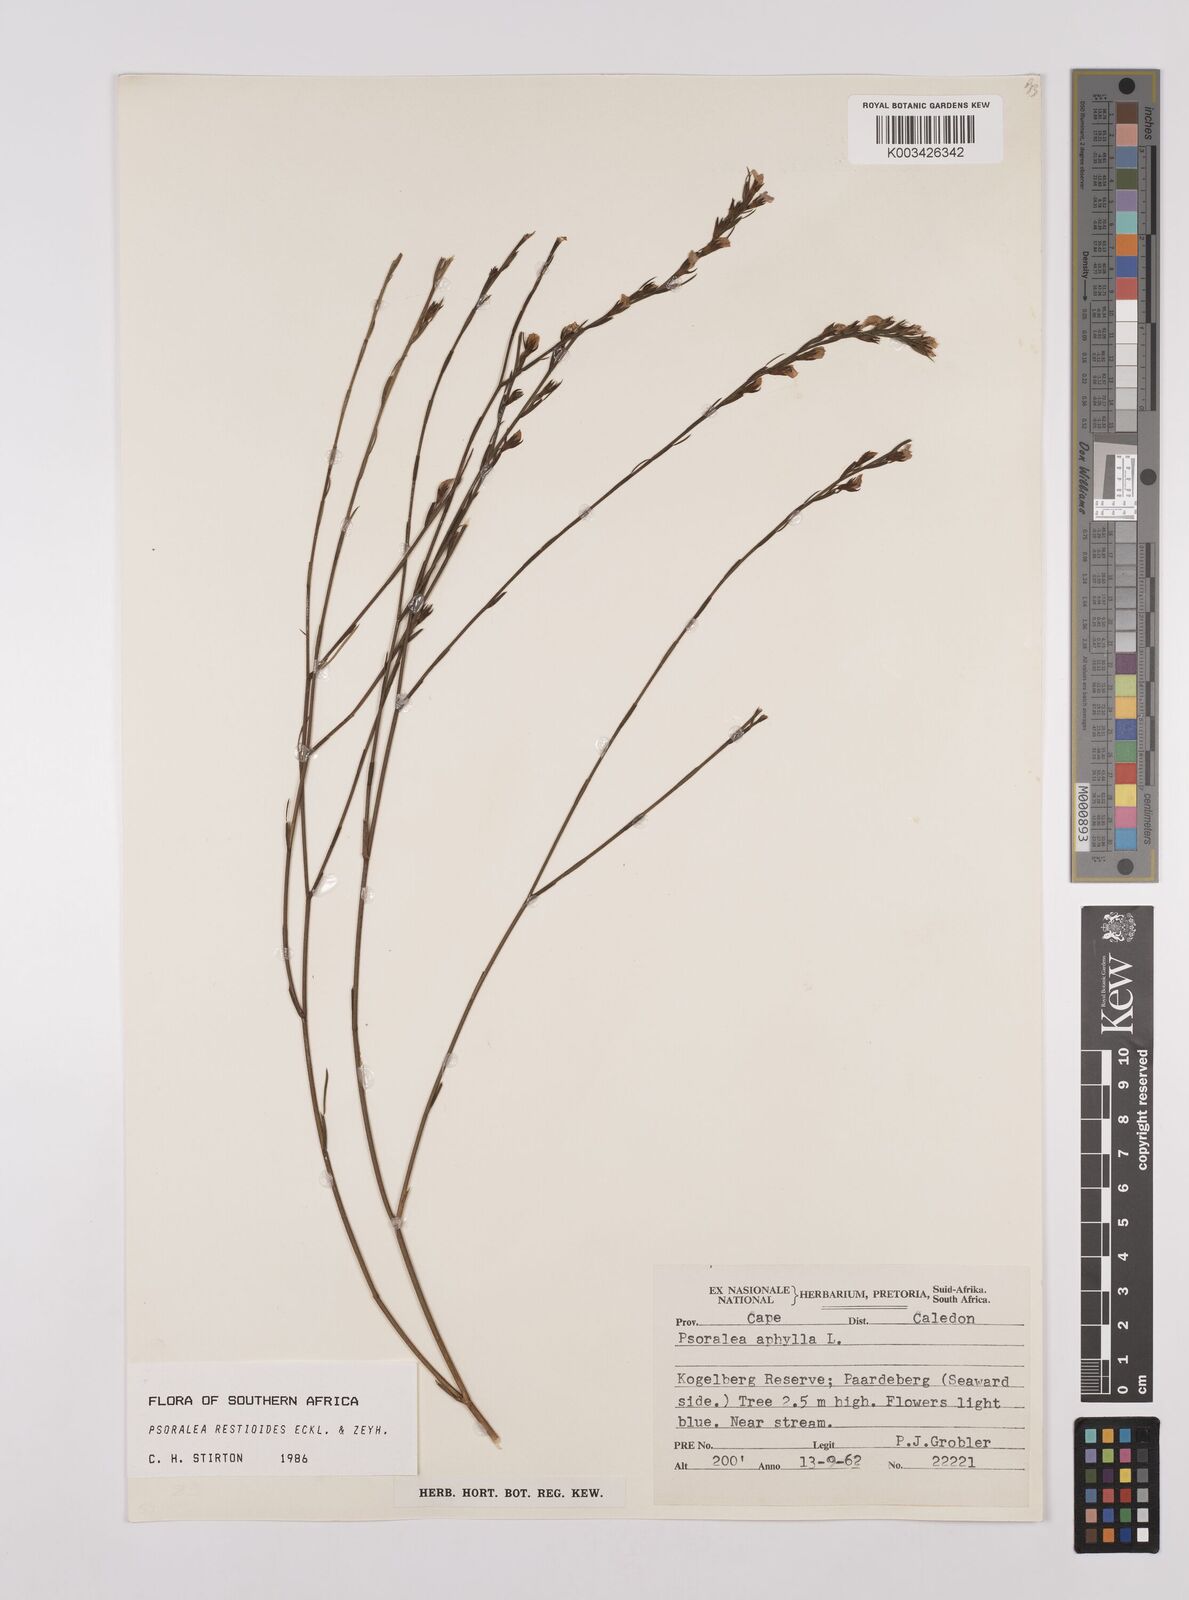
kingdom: Plantae
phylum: Tracheophyta
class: Magnoliopsida
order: Fabales
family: Fabaceae
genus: Psoralea
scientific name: Psoralea restioides
